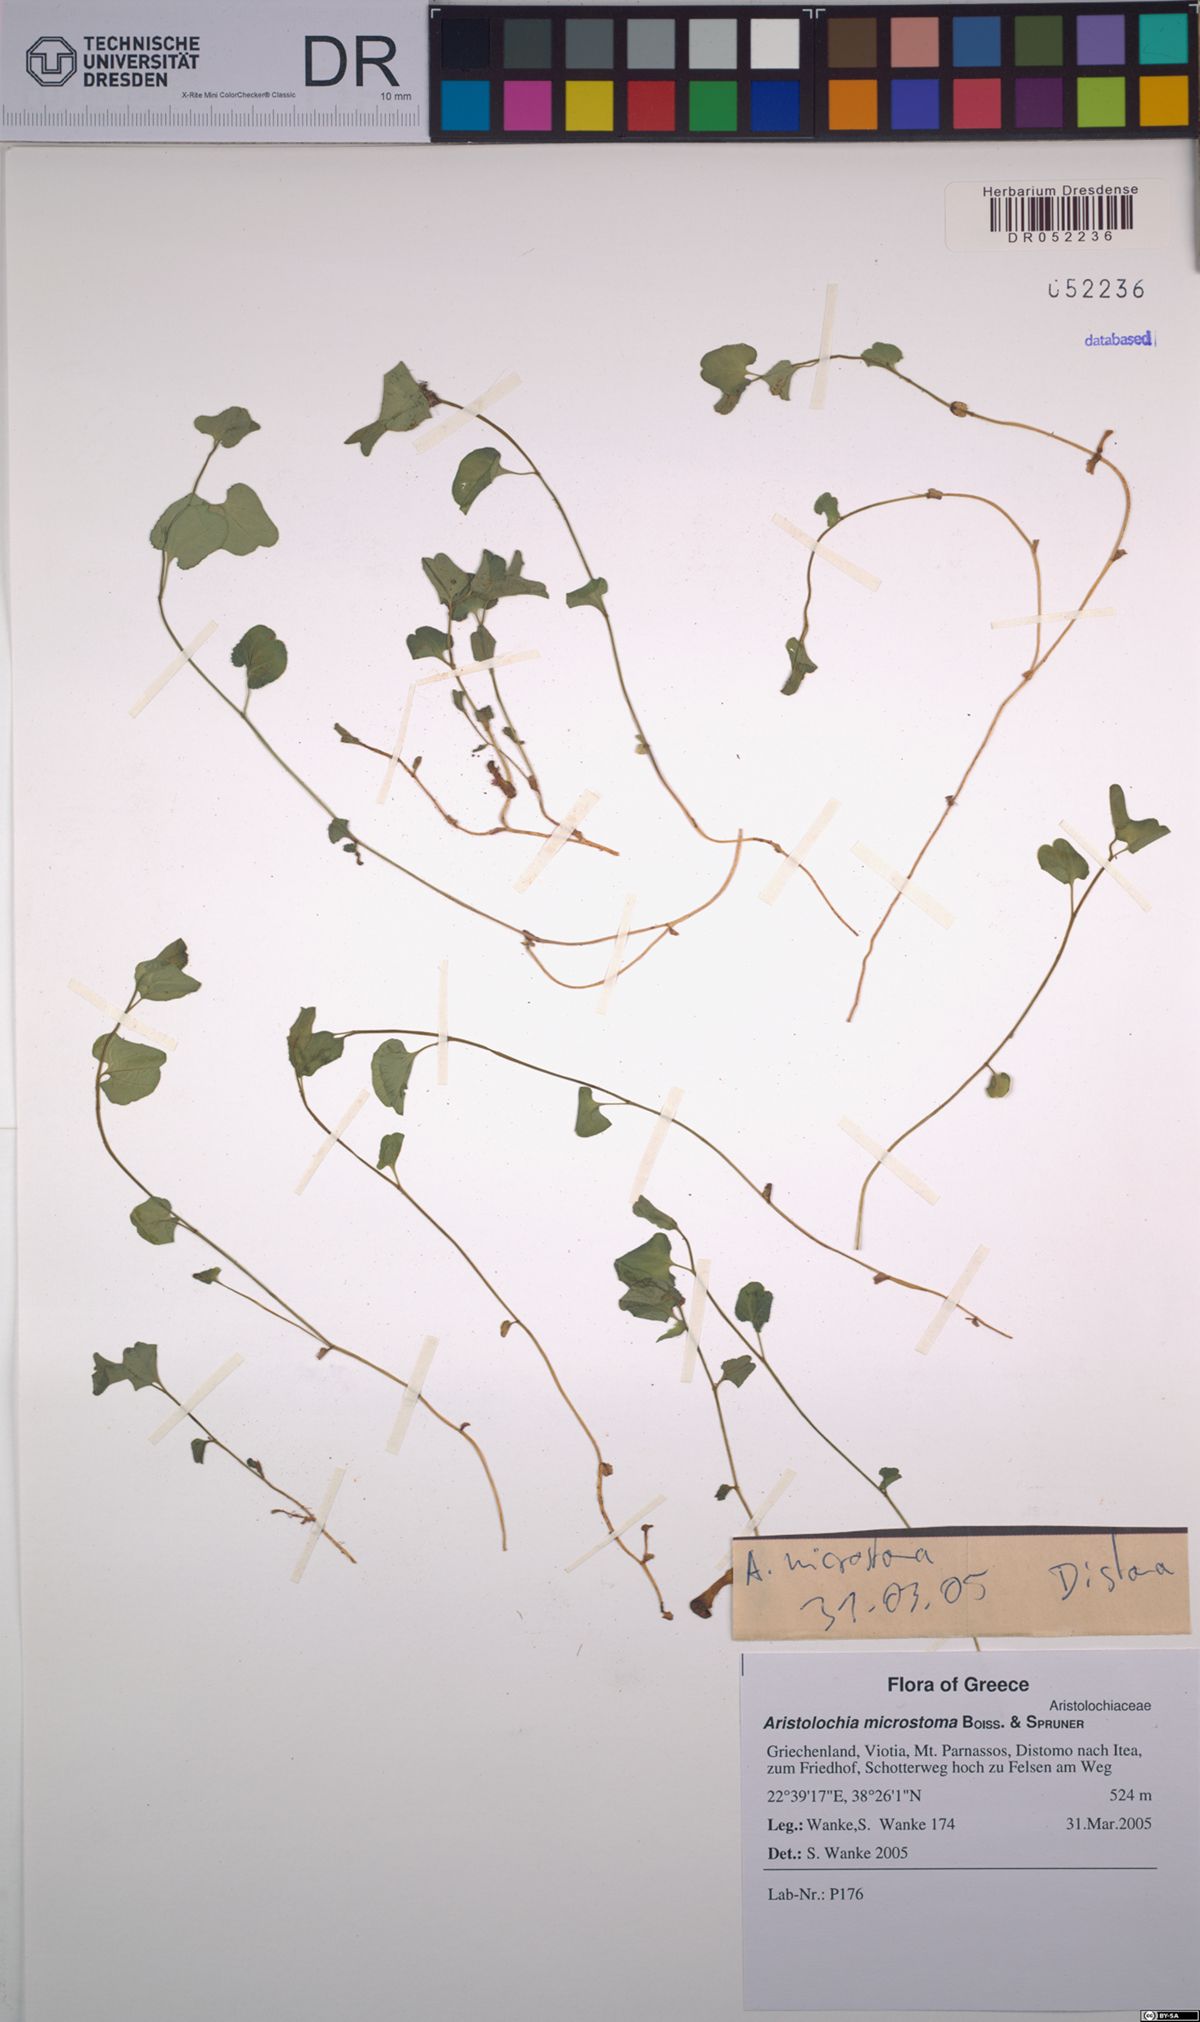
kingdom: Plantae
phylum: Tracheophyta
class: Magnoliopsida
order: Piperales
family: Aristolochiaceae
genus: Aristolochia
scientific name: Aristolochia microstoma
